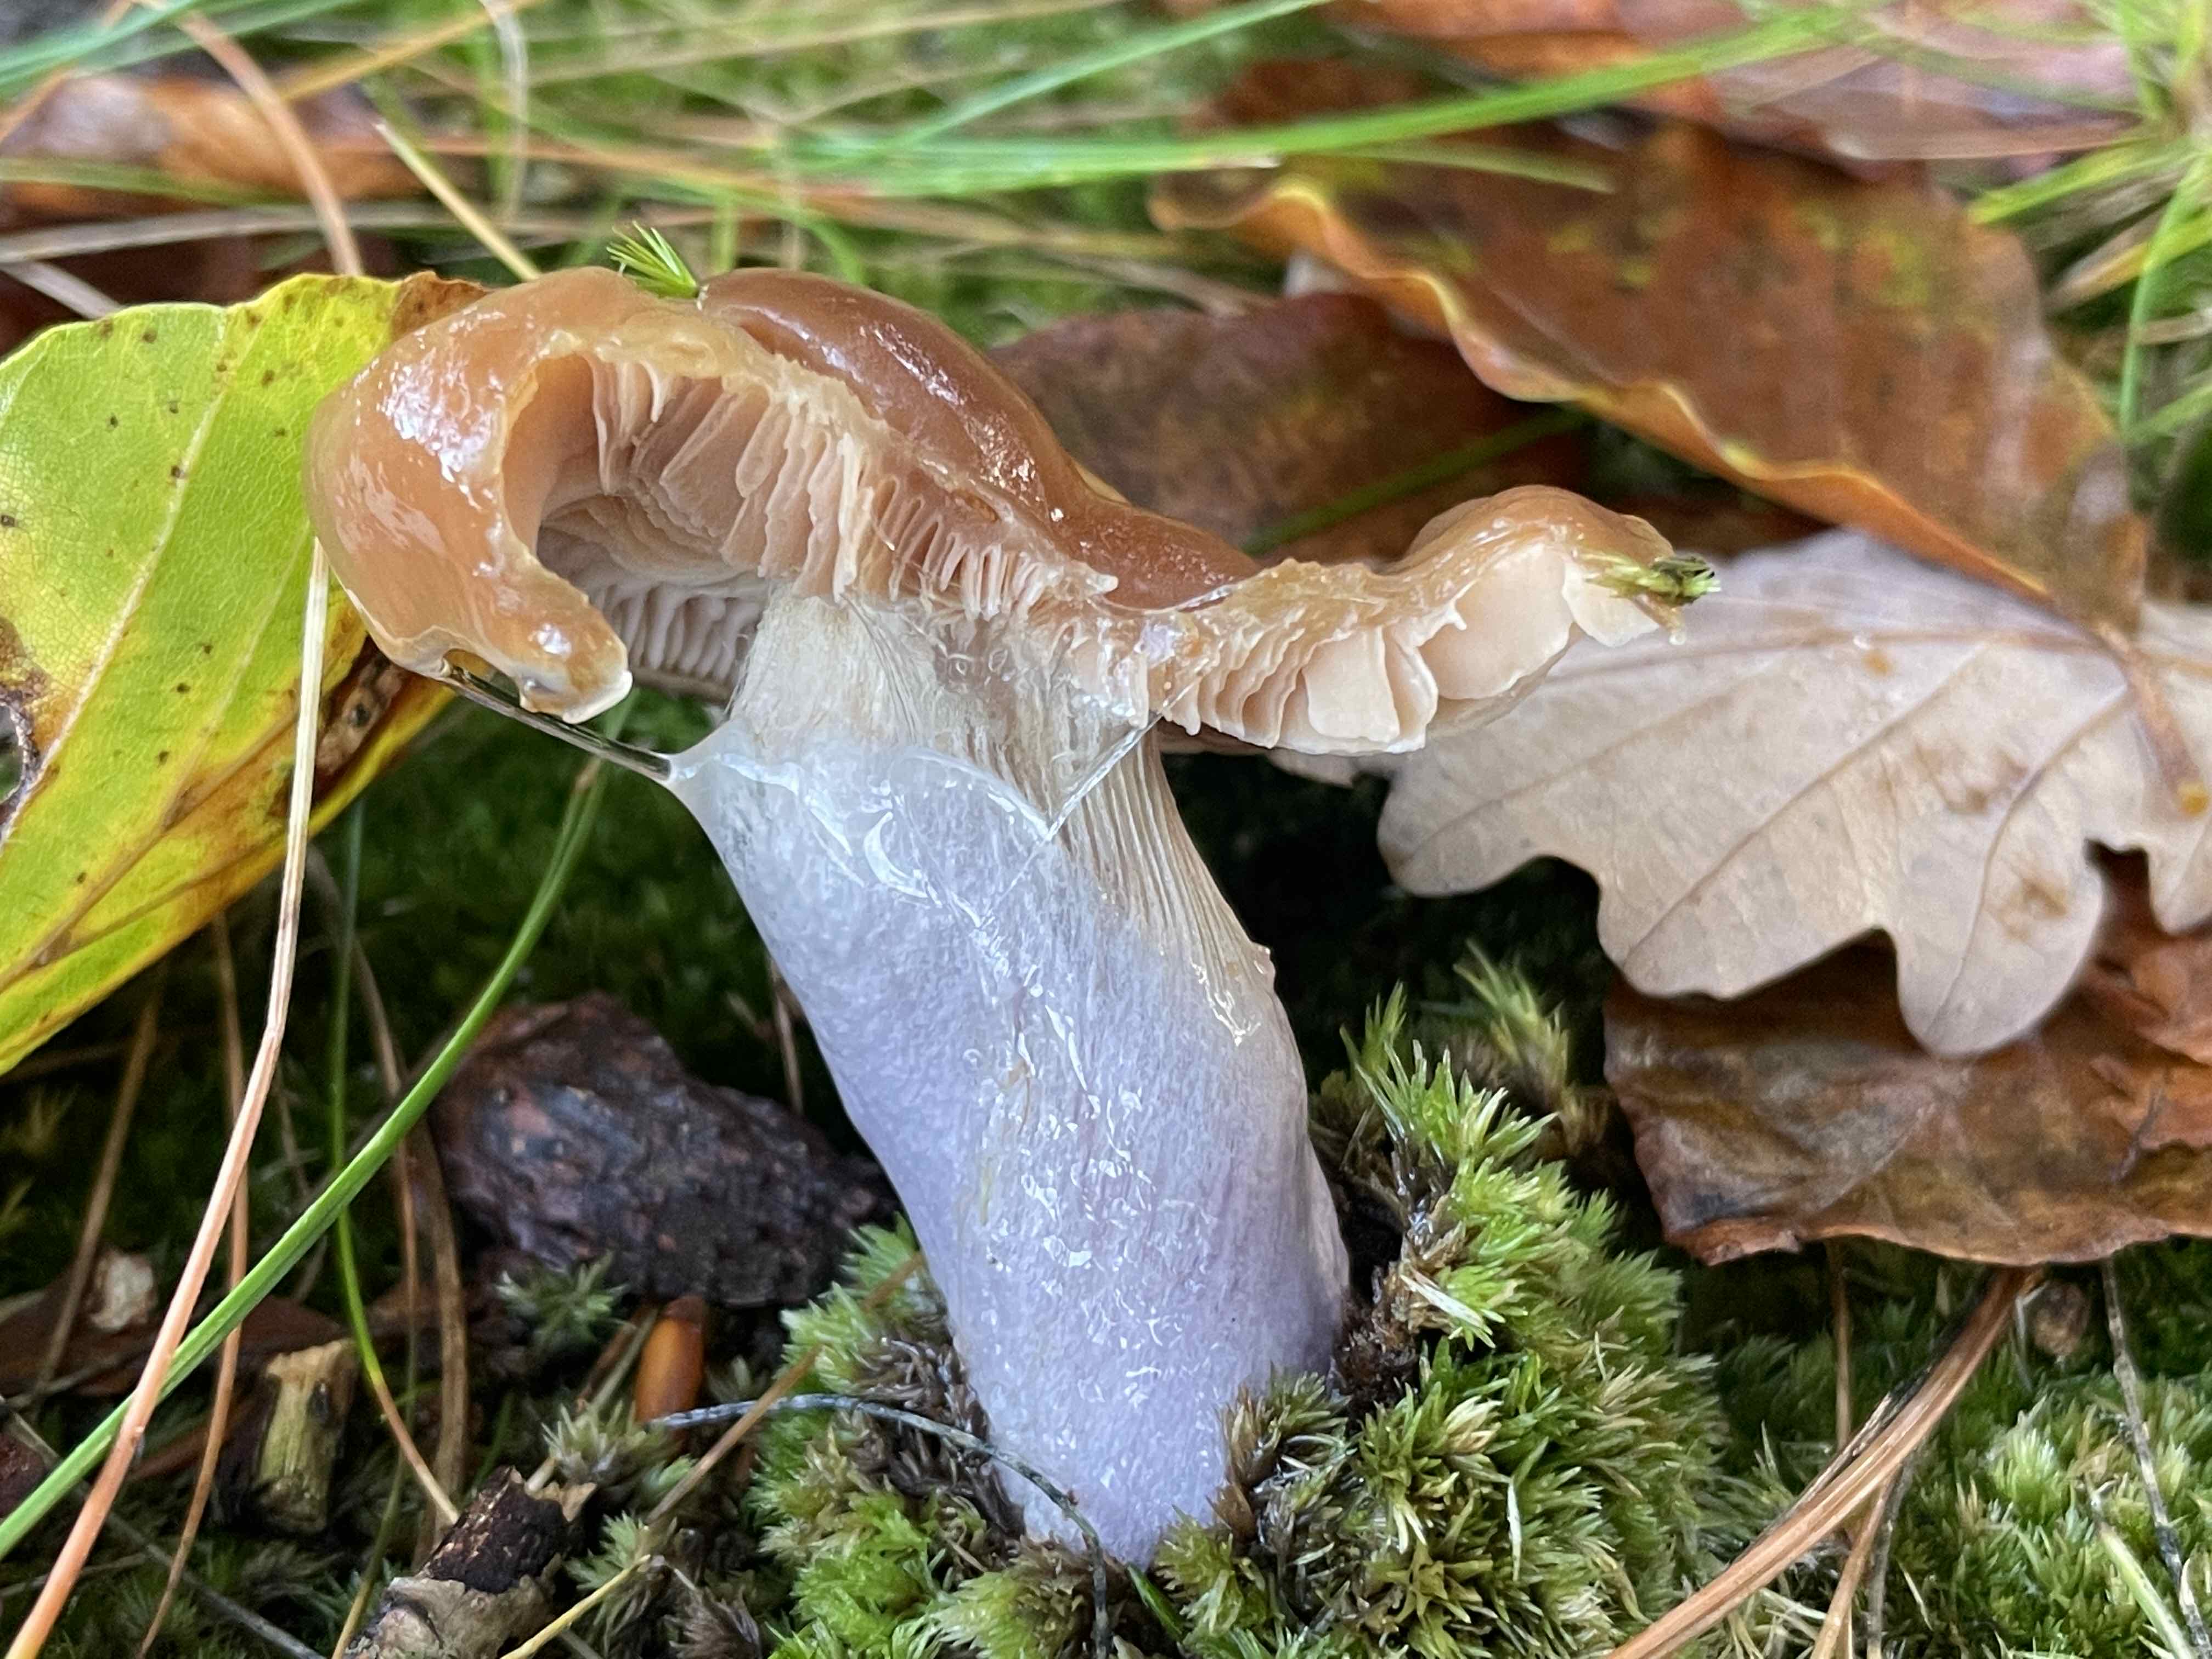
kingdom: Fungi
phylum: Basidiomycota
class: Agaricomycetes
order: Agaricales
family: Cortinariaceae
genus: Cortinarius
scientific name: Cortinarius
